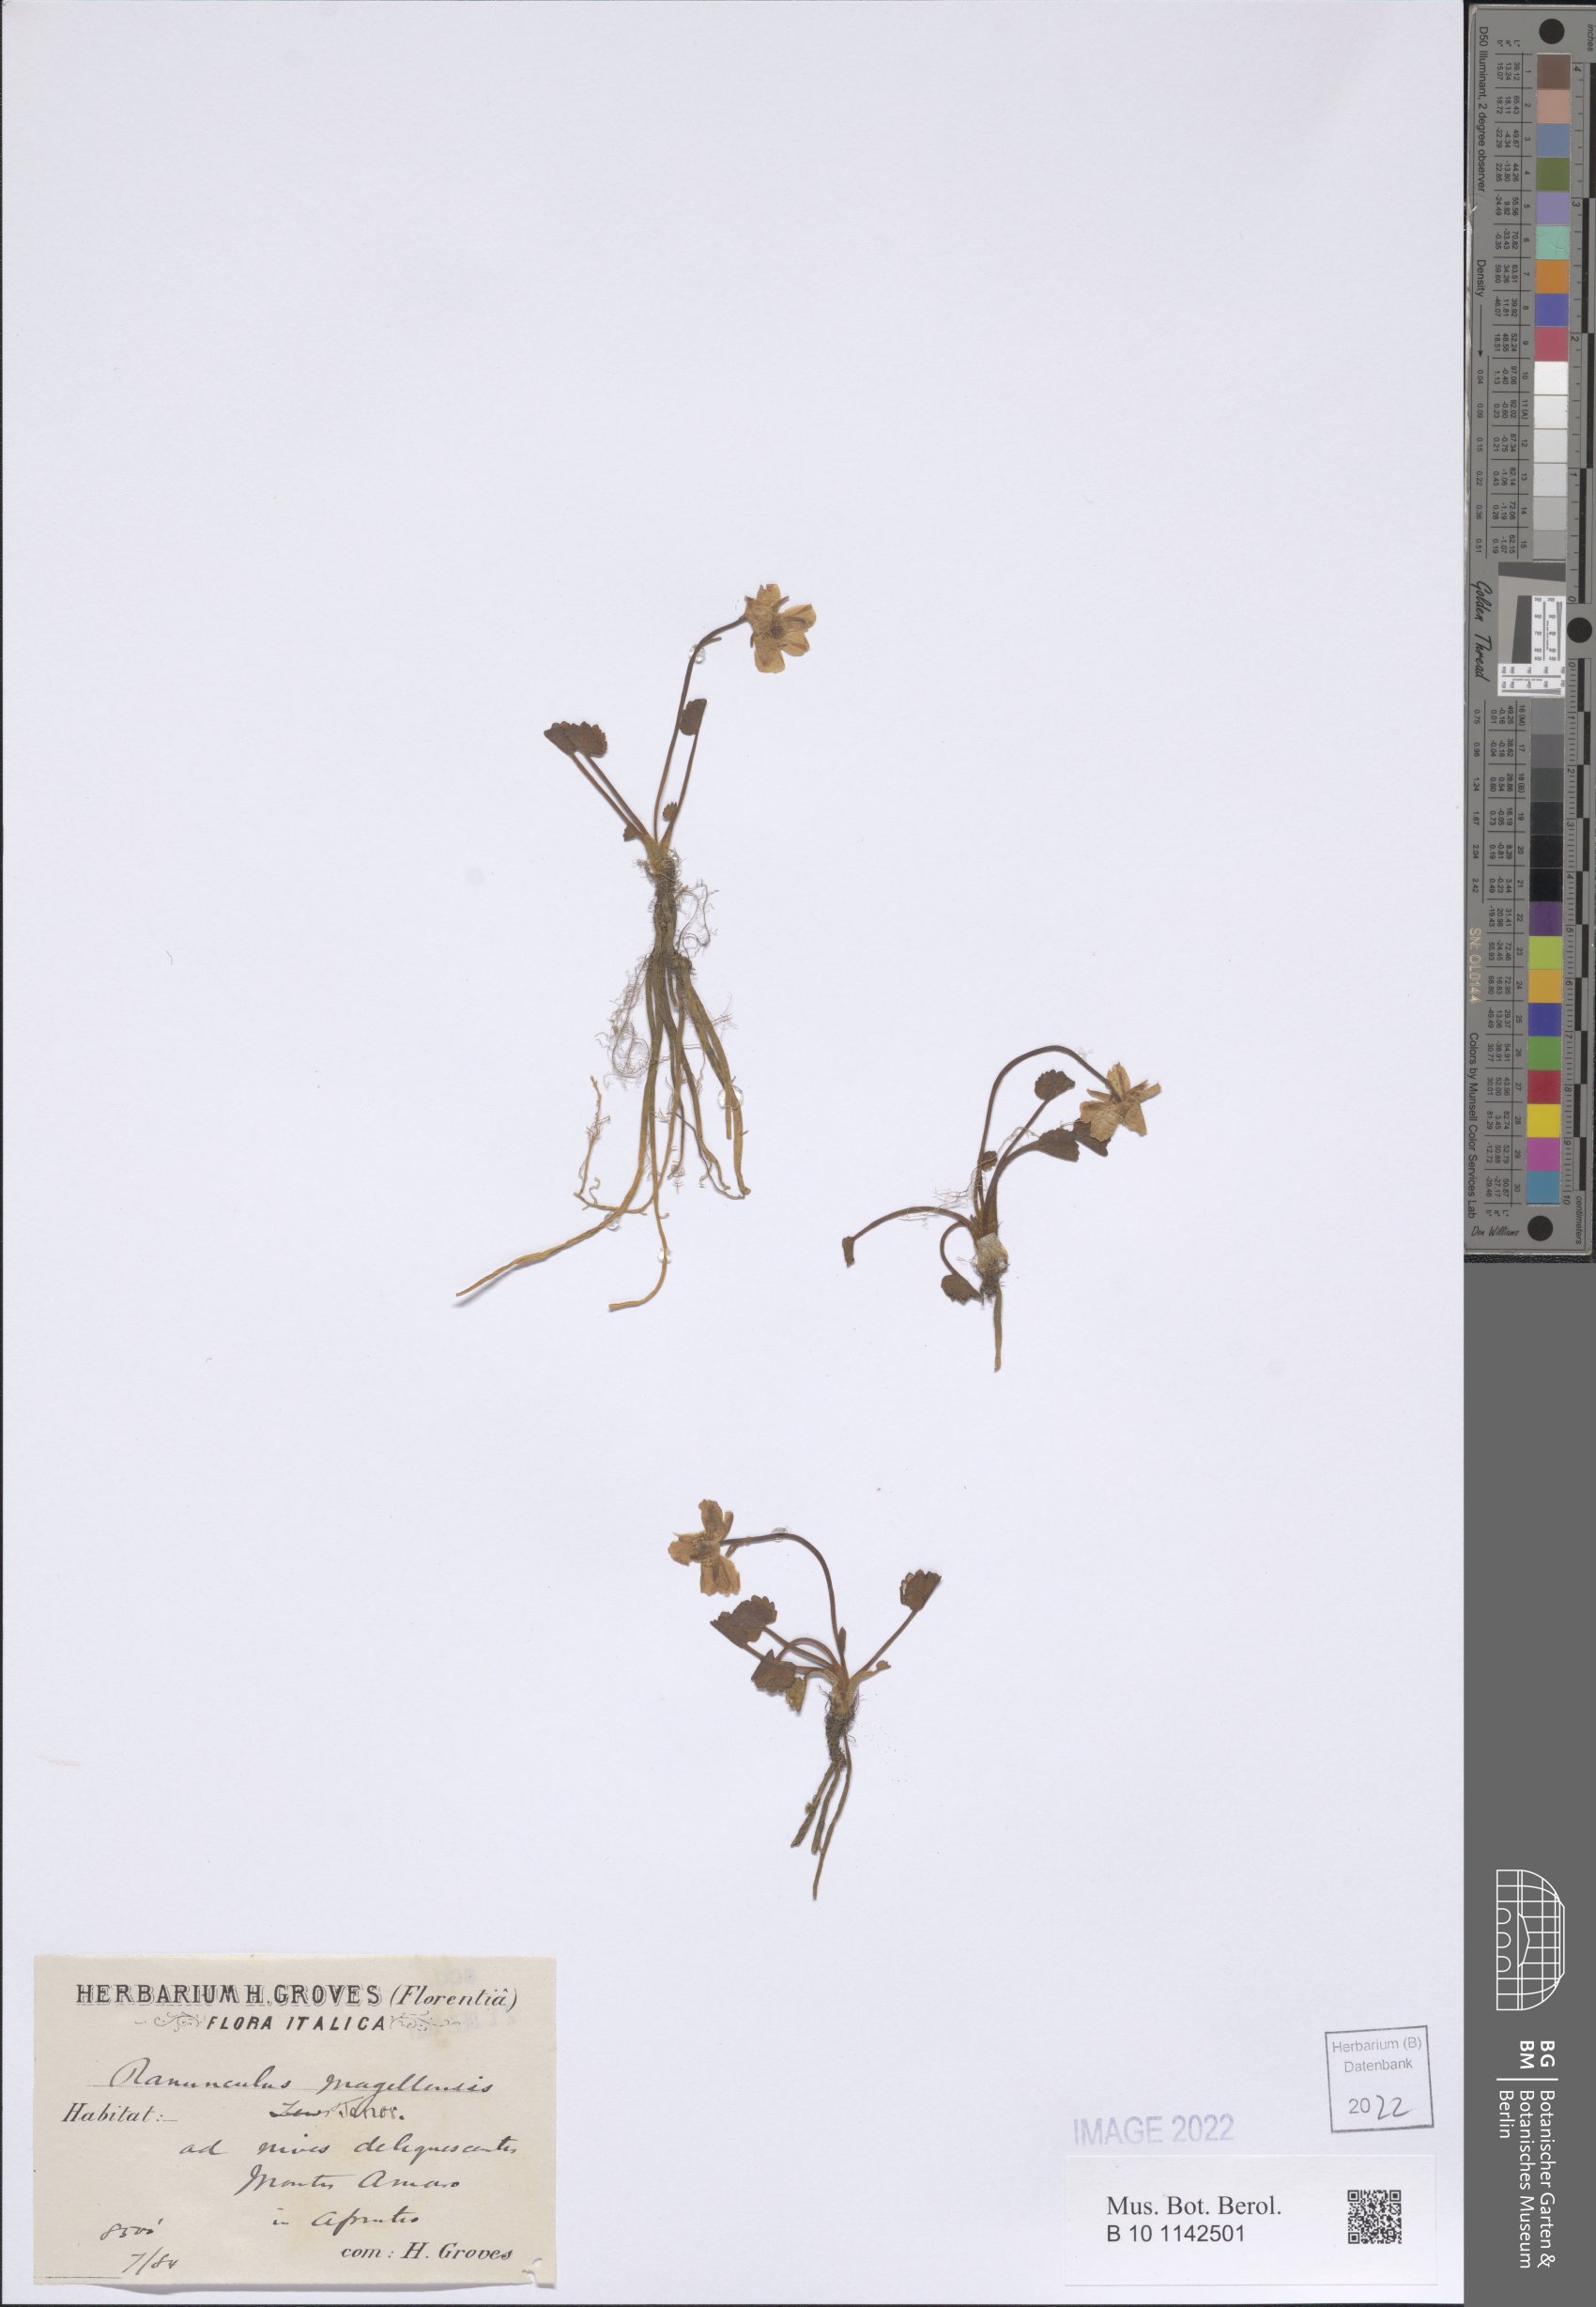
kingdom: Plantae
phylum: Tracheophyta
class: Magnoliopsida
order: Ranunculales
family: Ranunculaceae
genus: Ranunculus
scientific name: Ranunculus magellensis
